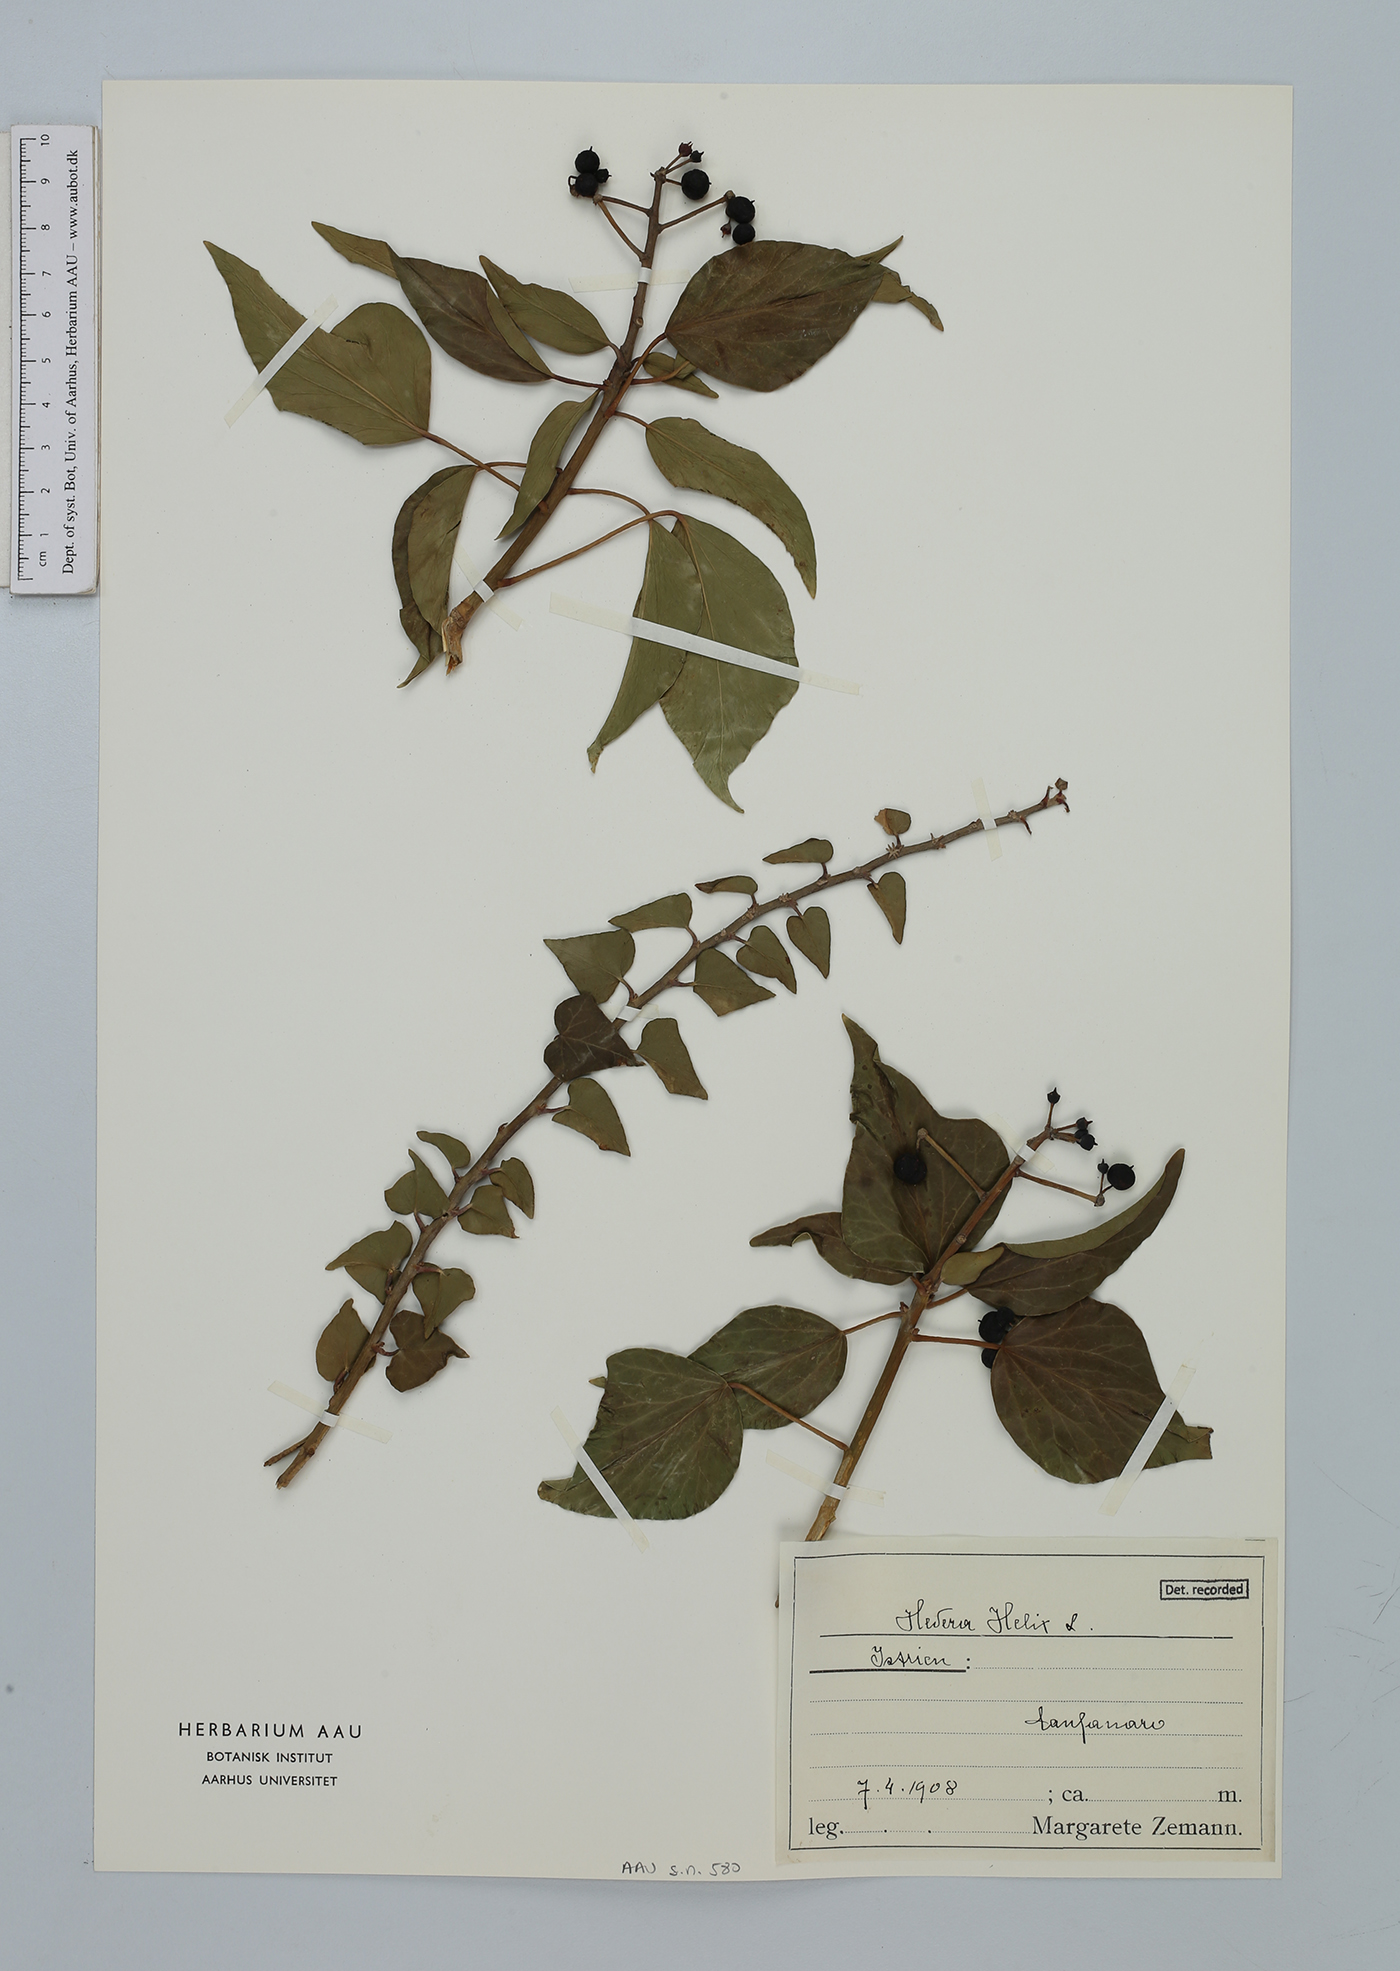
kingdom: Plantae
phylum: Tracheophyta
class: Magnoliopsida
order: Apiales
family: Araliaceae
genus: Hedera
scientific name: Hedera helix
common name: Ivy
